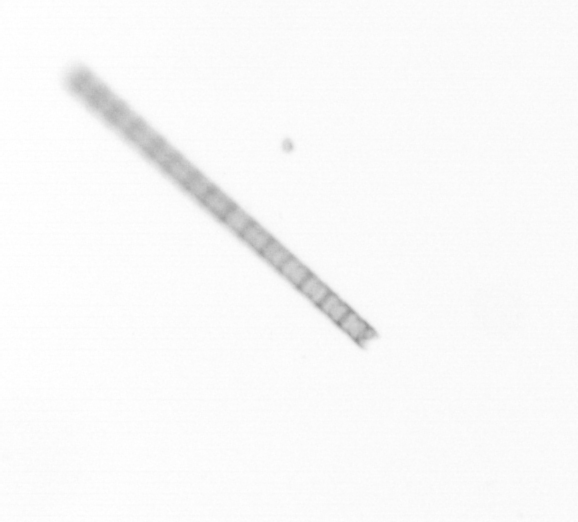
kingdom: Chromista
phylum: Ochrophyta
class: Bacillariophyceae
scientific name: Bacillariophyceae
